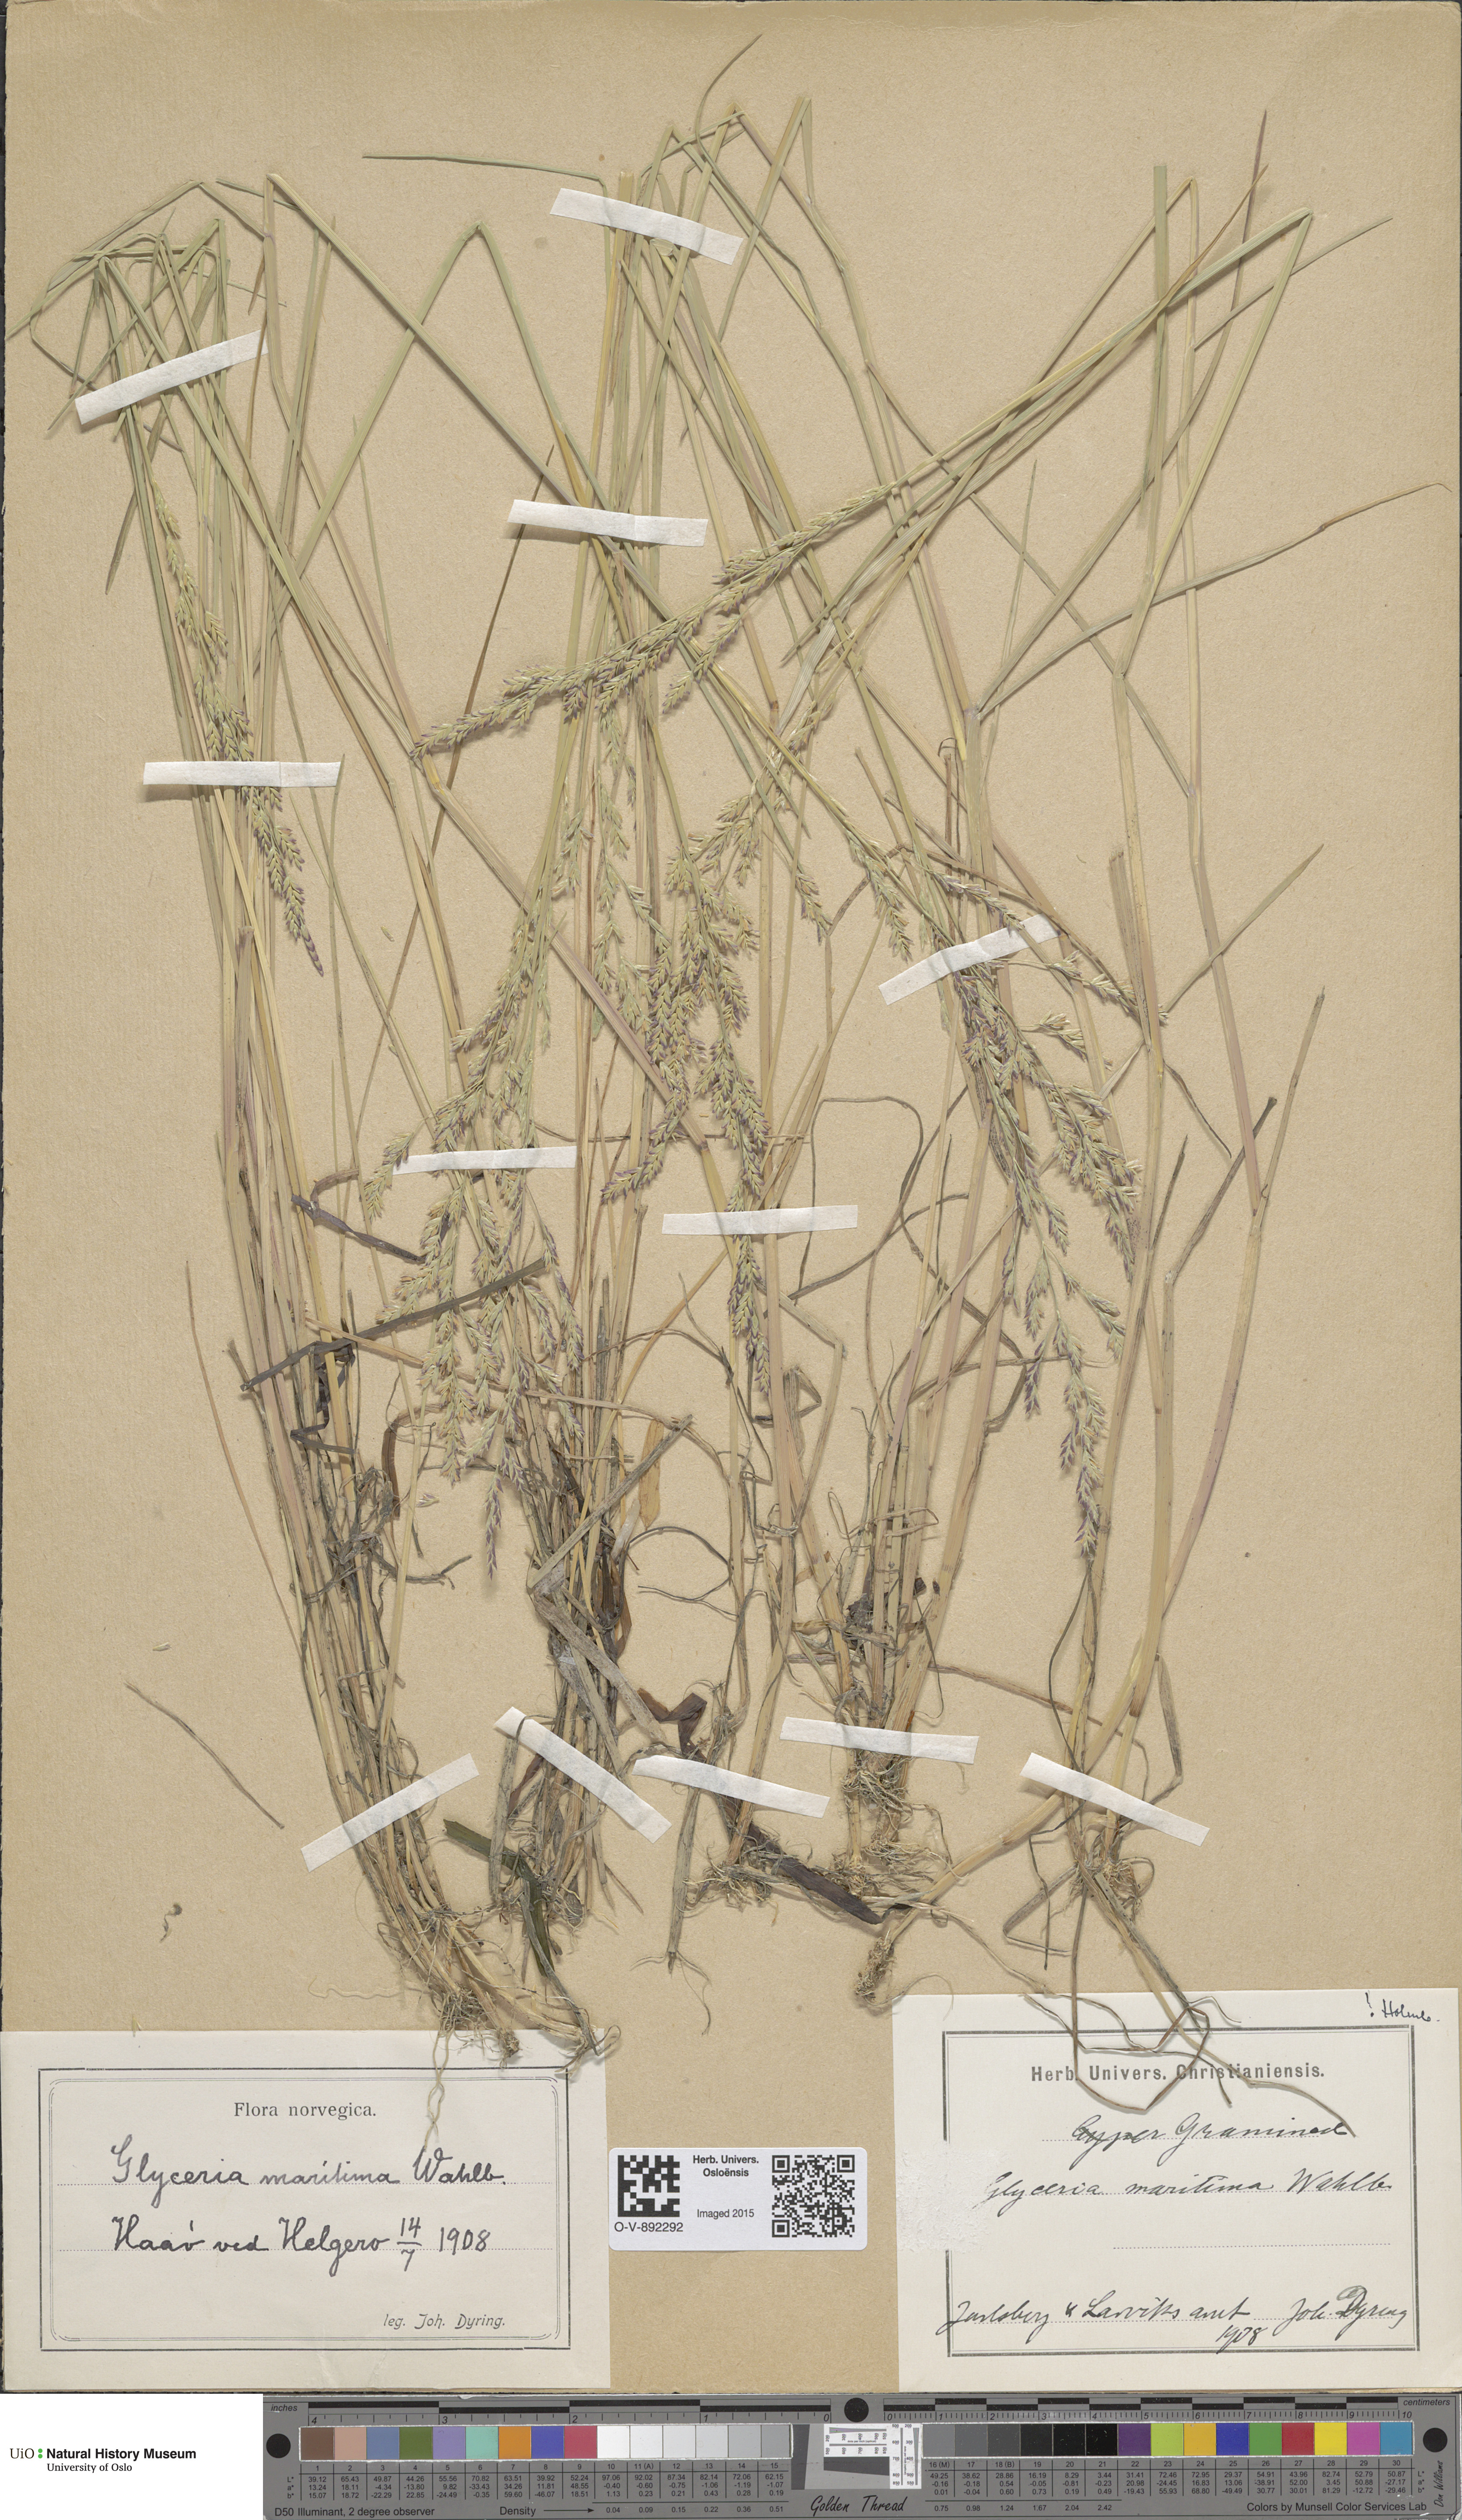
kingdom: Plantae
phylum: Tracheophyta
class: Liliopsida
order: Poales
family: Poaceae
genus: Puccinellia
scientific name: Puccinellia maritima
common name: Common saltmarsh grass
